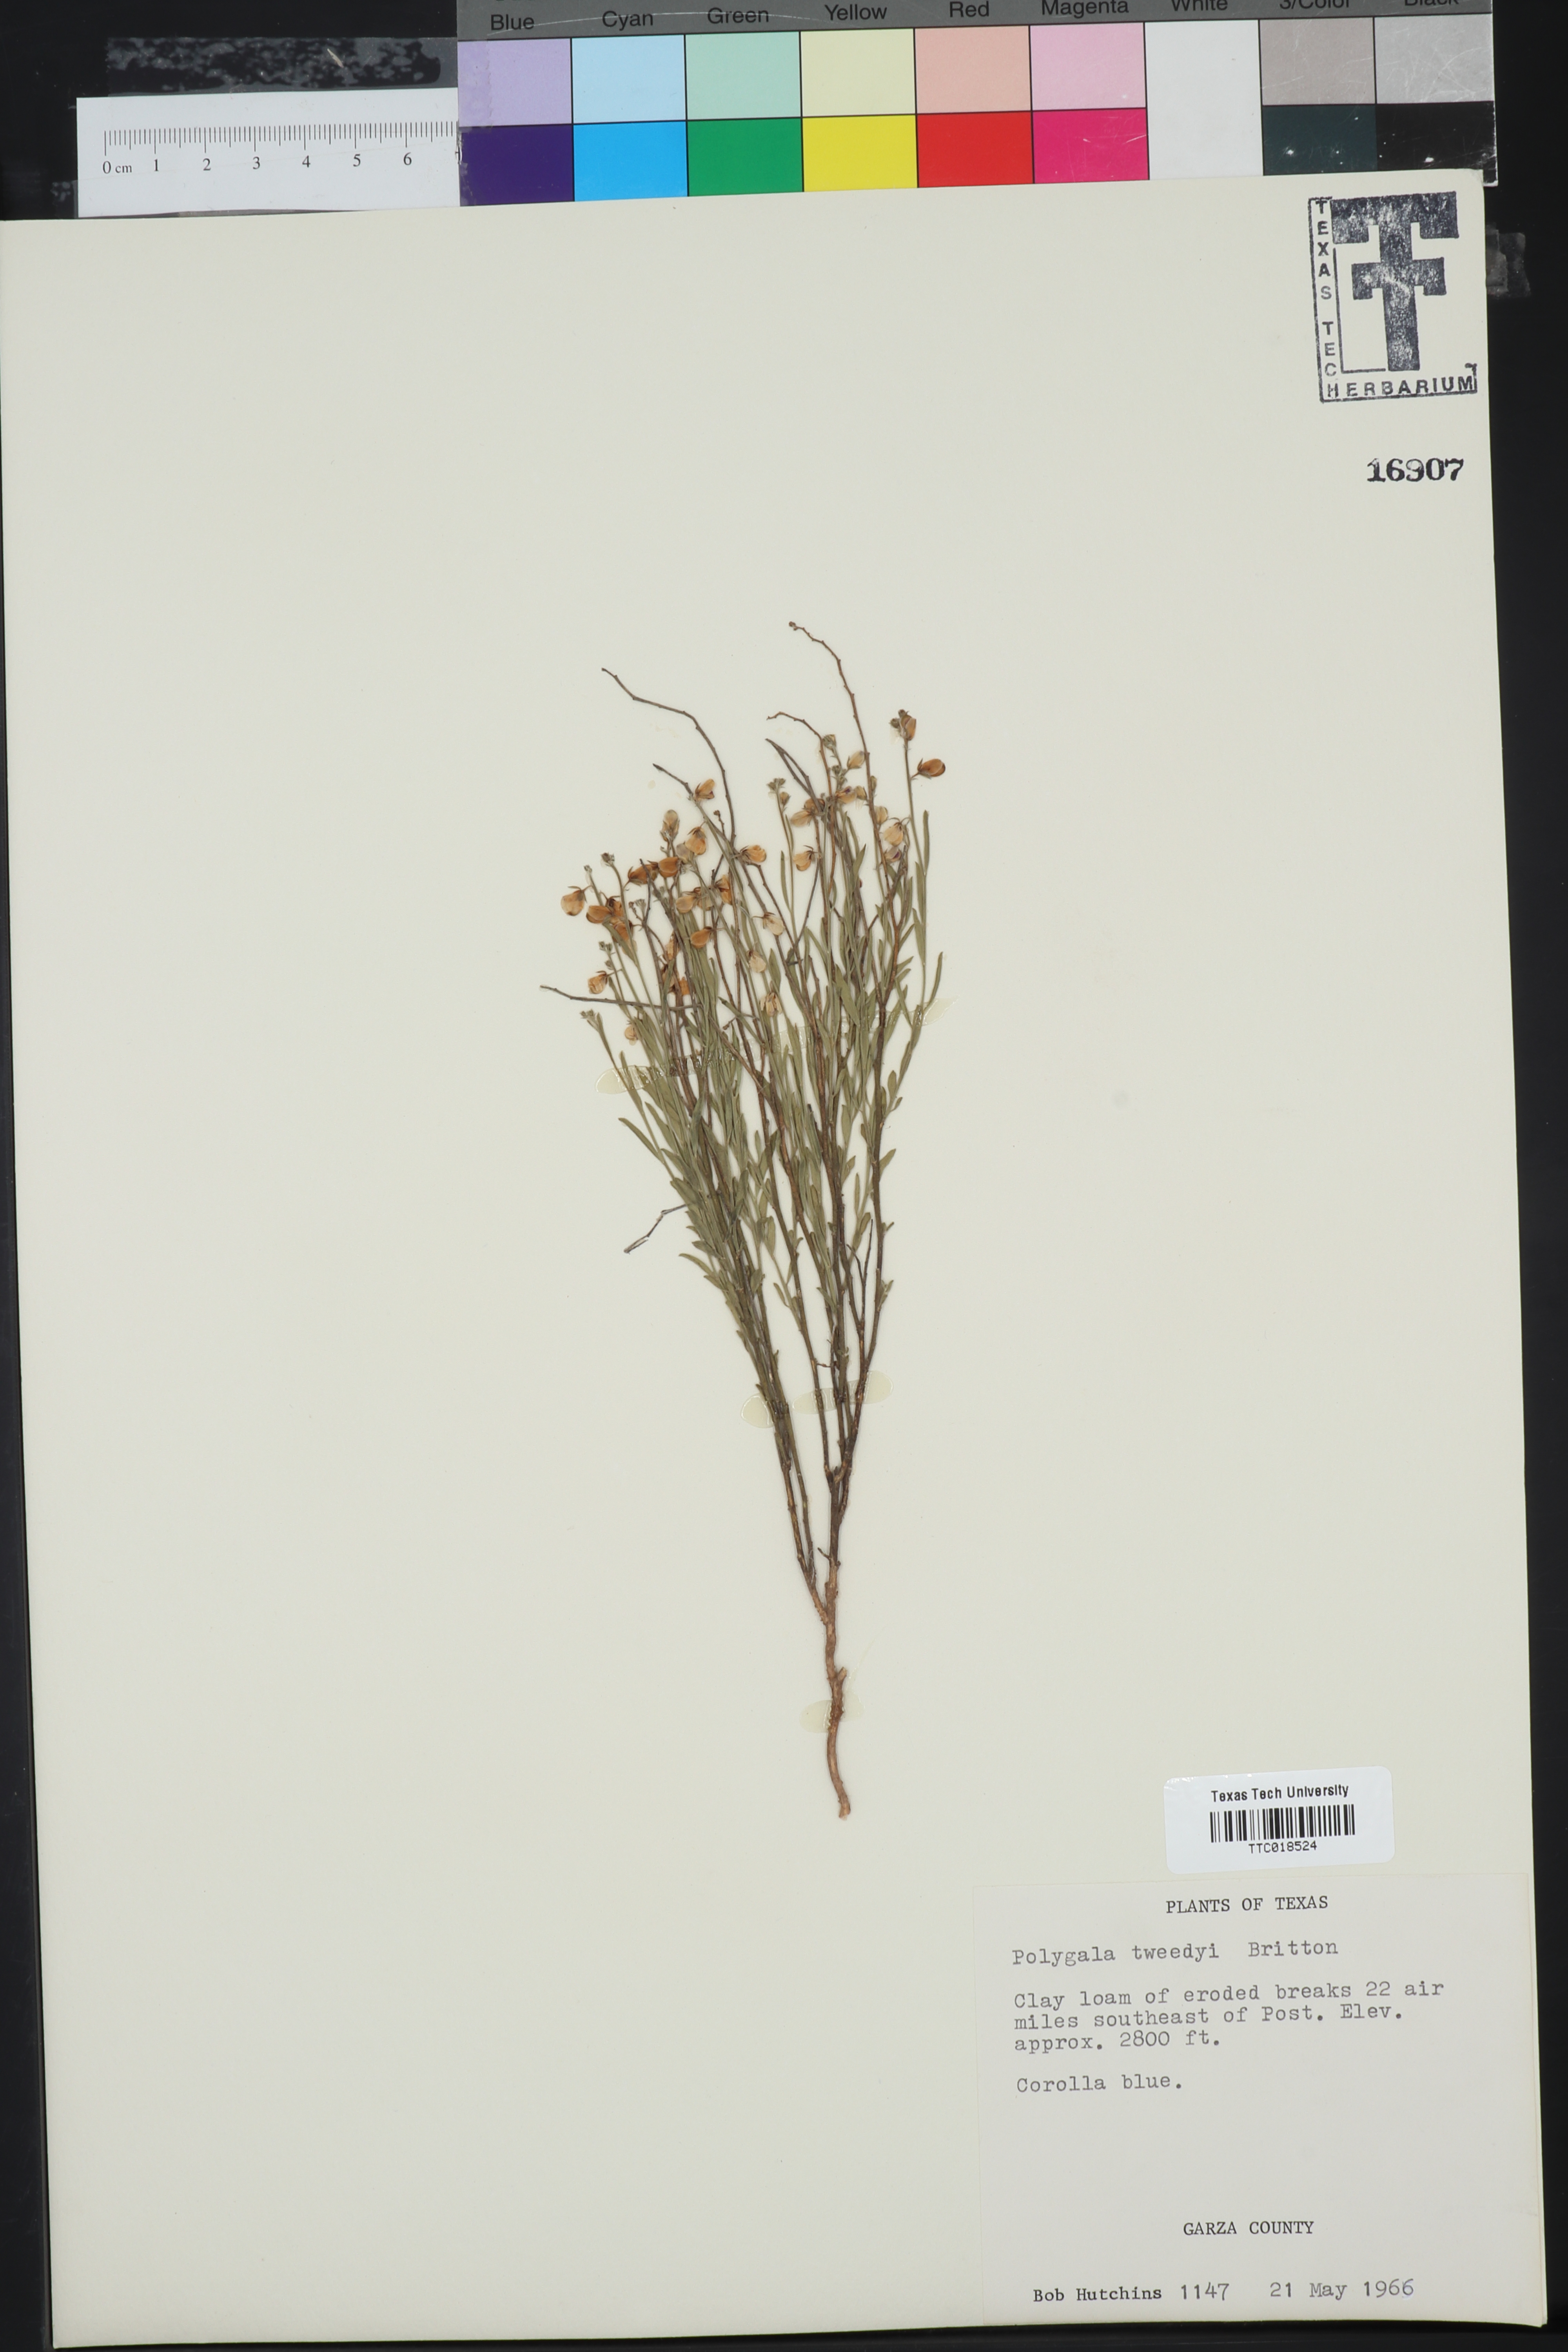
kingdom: Plantae
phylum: Tracheophyta
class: Magnoliopsida
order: Fabales
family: Polygalaceae
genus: Rhinotropis
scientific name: Rhinotropis lindheimeri
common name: Shrubby milkwort
